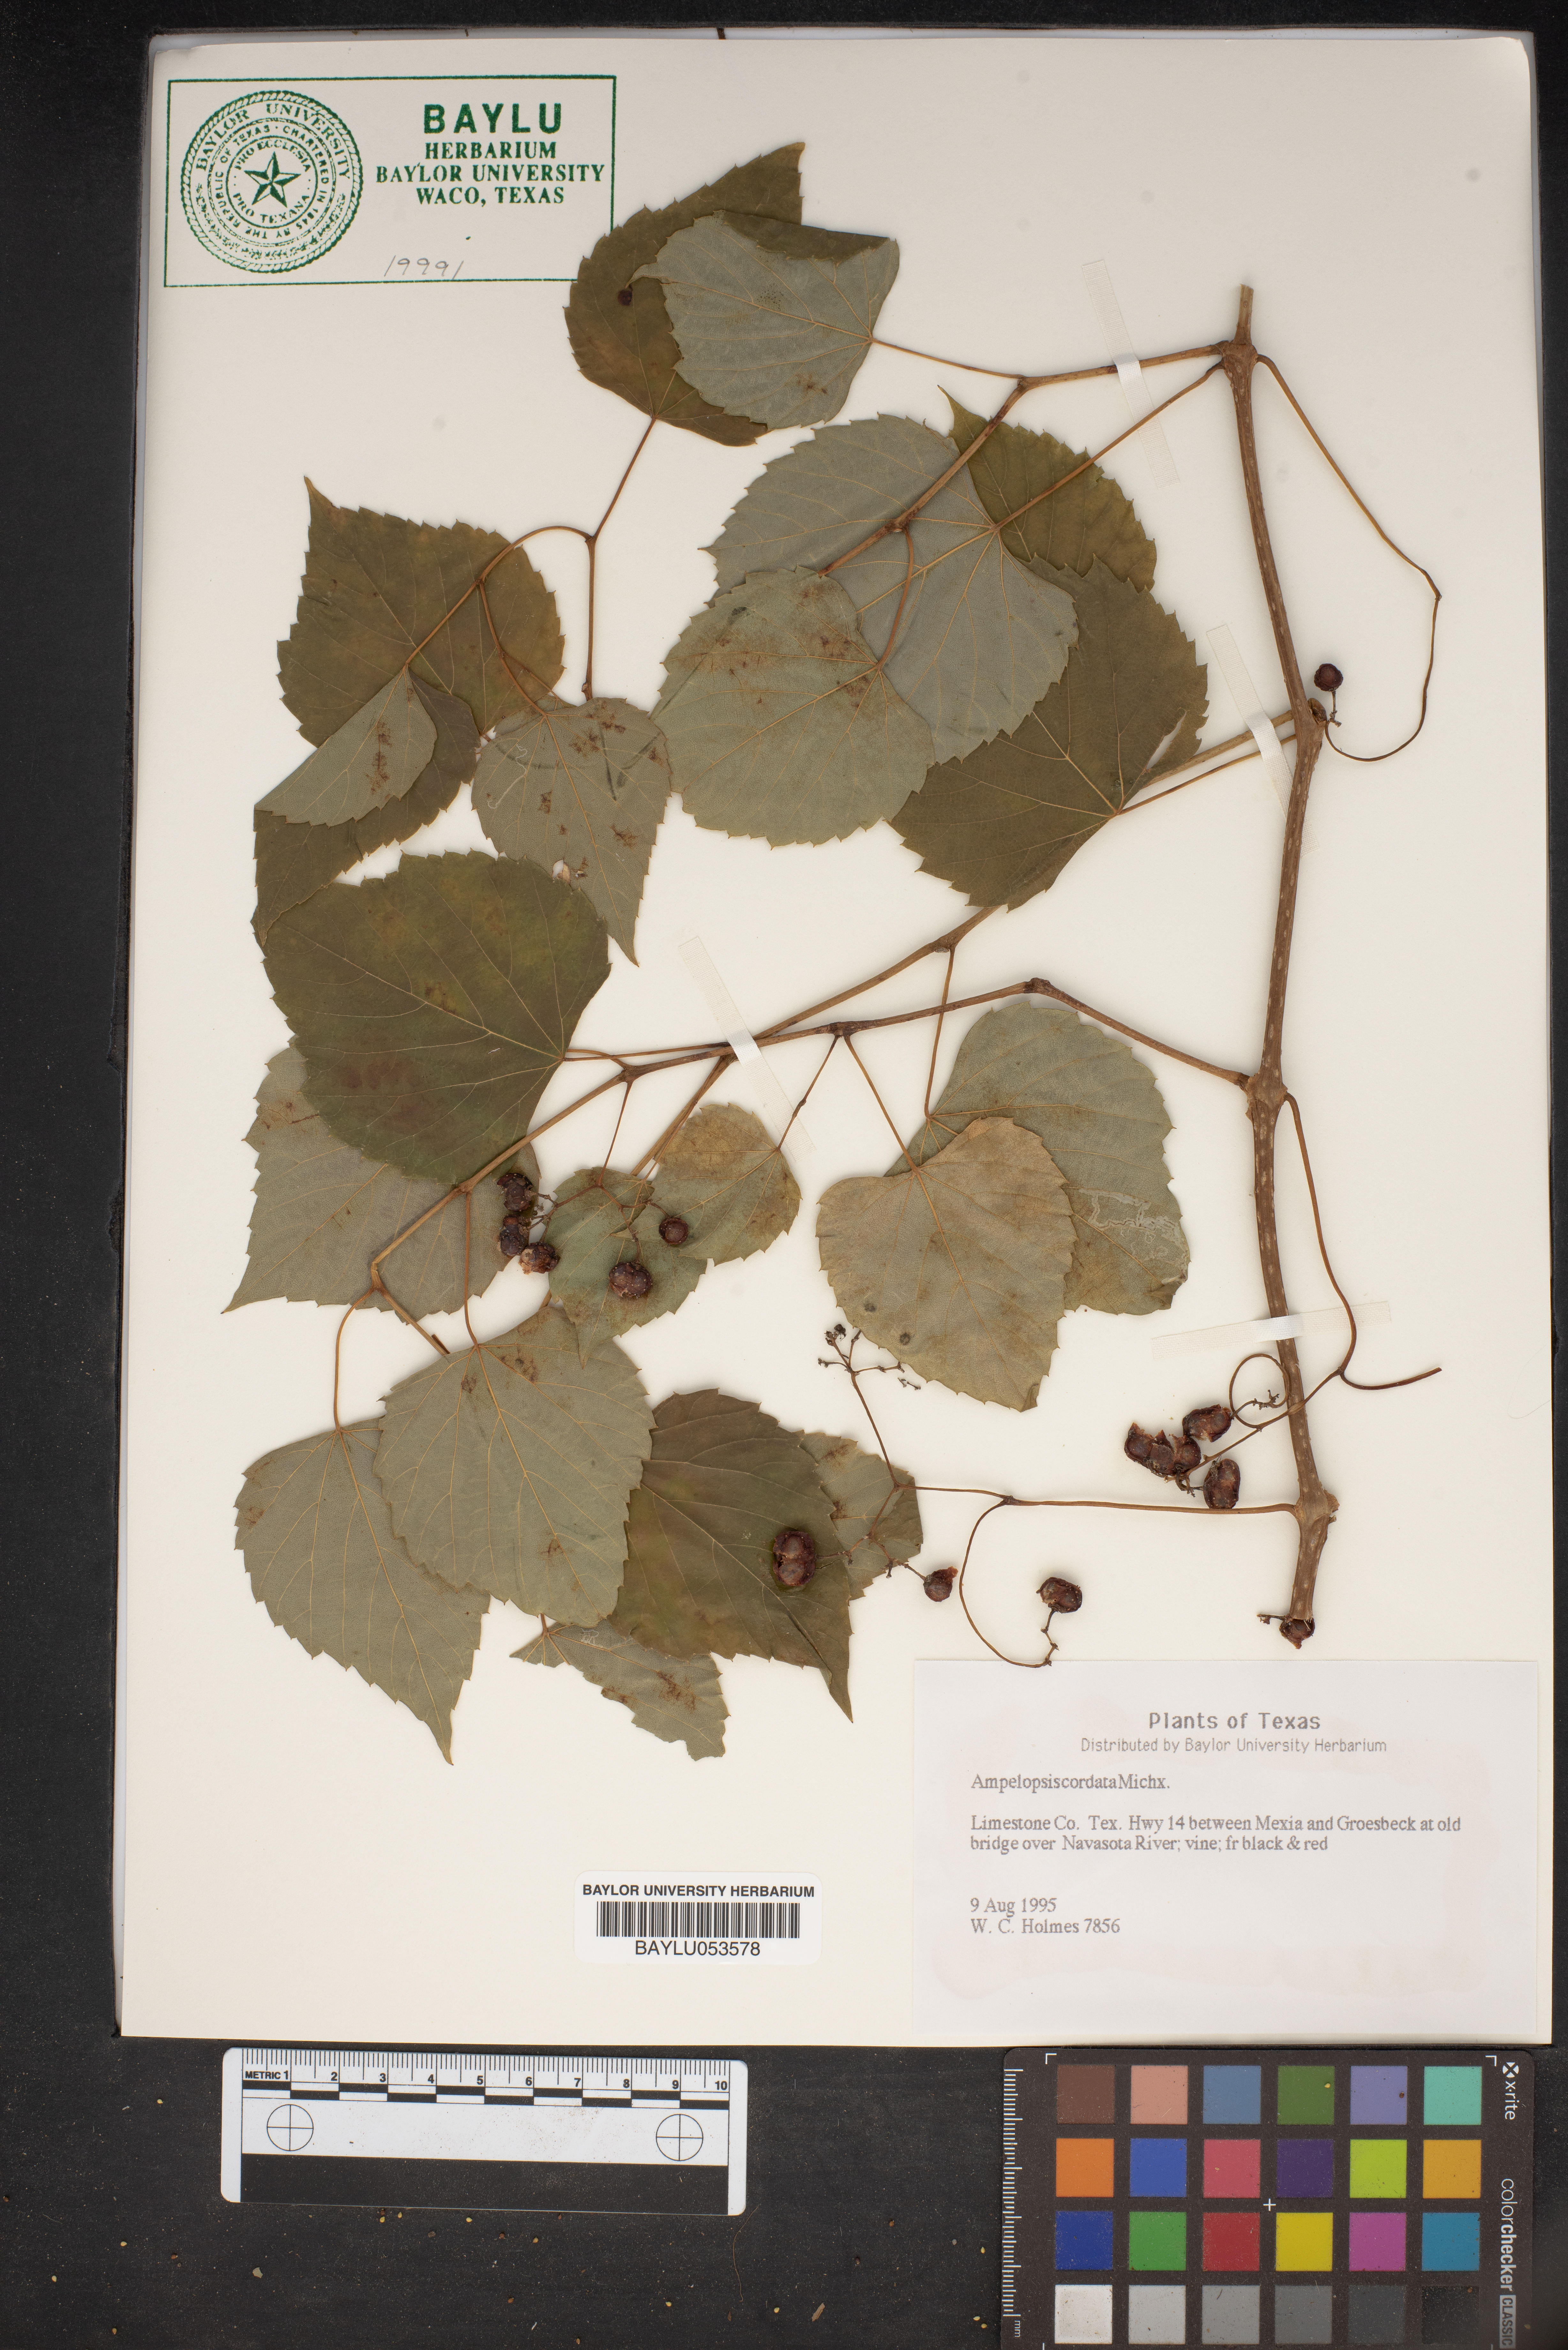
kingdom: Plantae
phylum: Tracheophyta
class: Magnoliopsida
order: Vitales
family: Vitaceae
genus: Ampelopsis
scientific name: Ampelopsis cordata
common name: Heart-leaf ampelopsis
